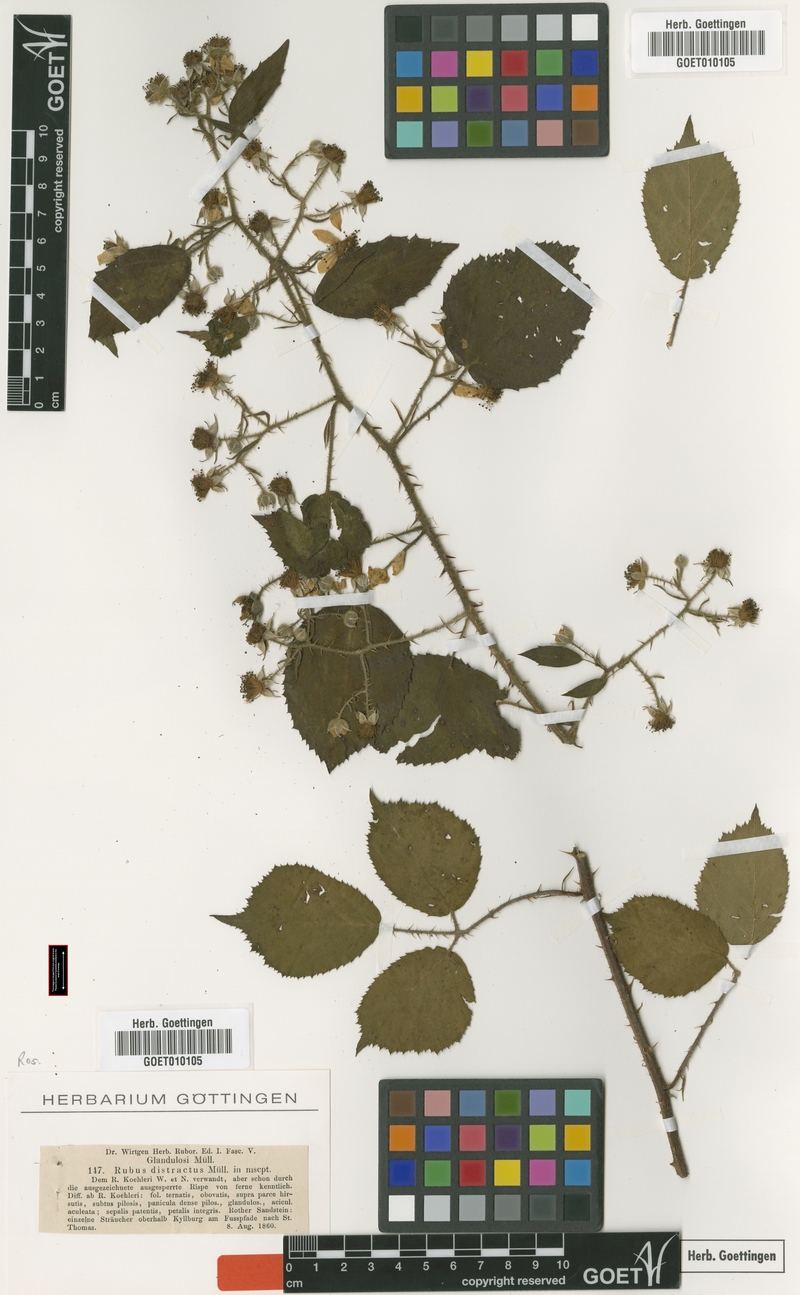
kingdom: Plantae
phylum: Tracheophyta
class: Magnoliopsida
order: Rosales
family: Rosaceae
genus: Rubus
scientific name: Rubus distractus
